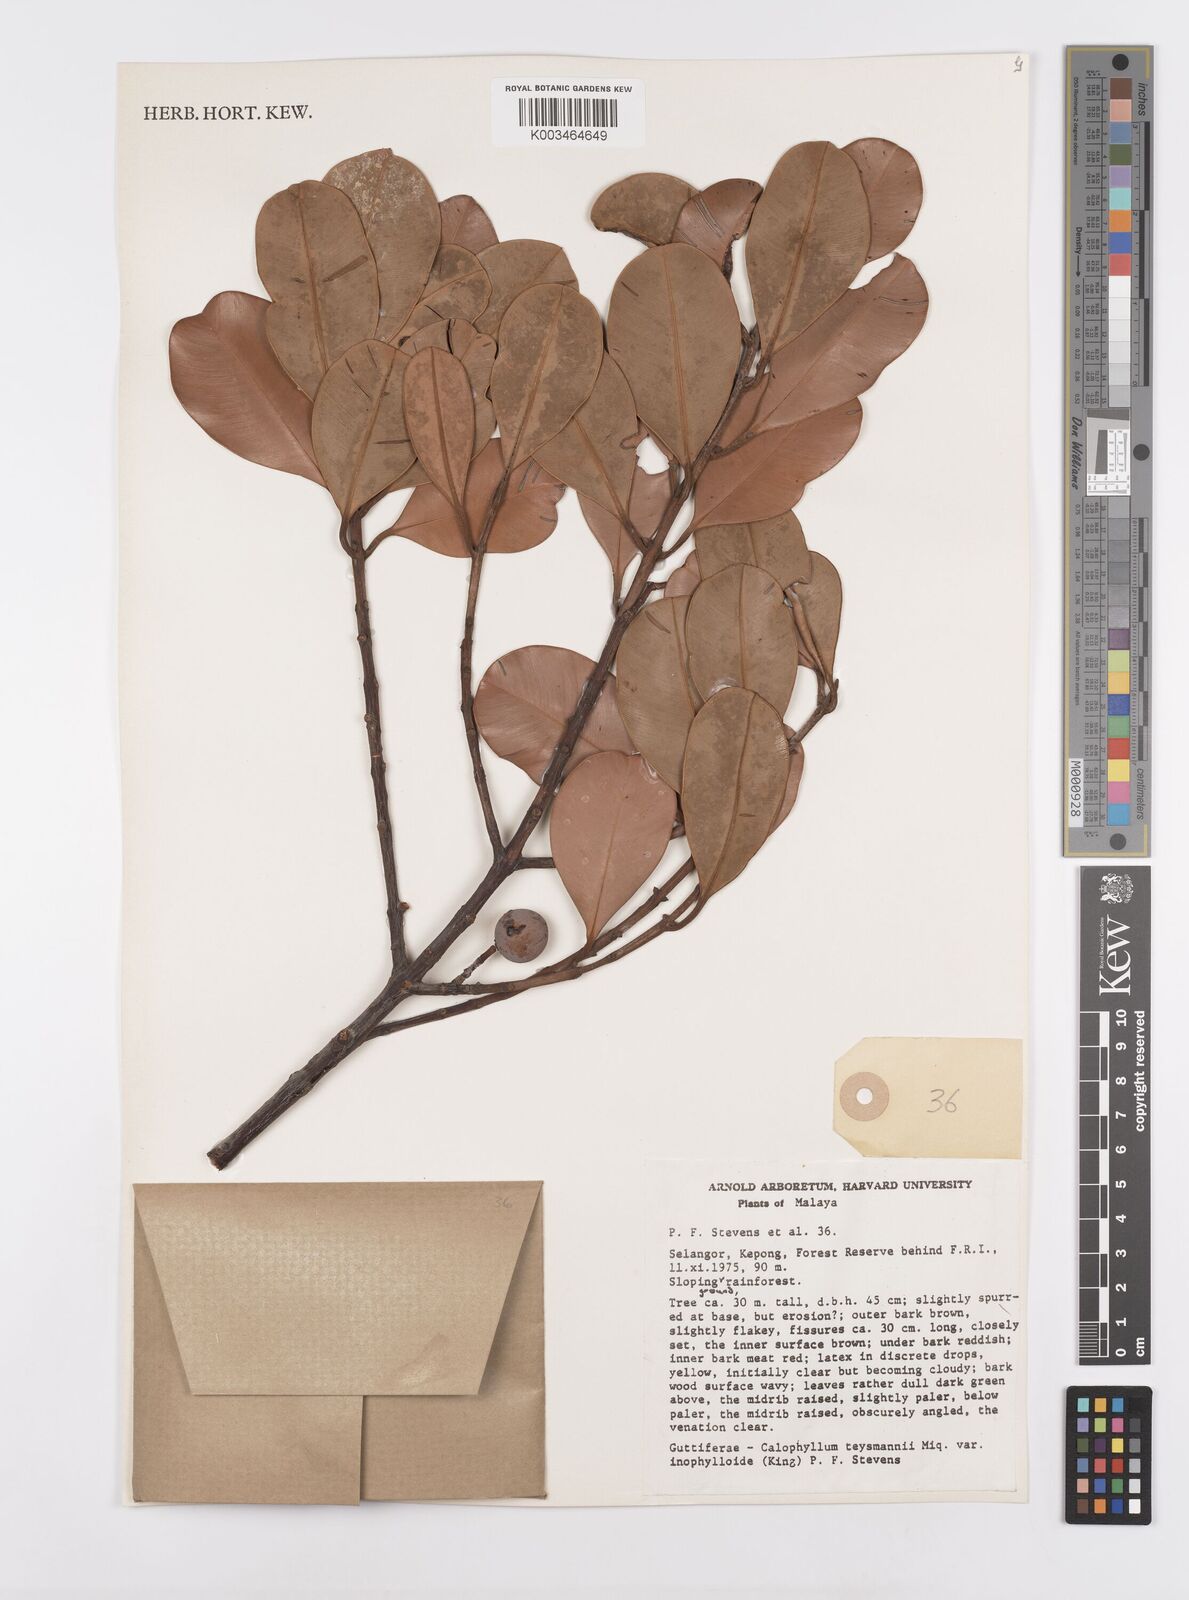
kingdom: Plantae
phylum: Tracheophyta
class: Magnoliopsida
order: Malpighiales
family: Calophyllaceae
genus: Calophyllum
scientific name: Calophyllum teysmannii
